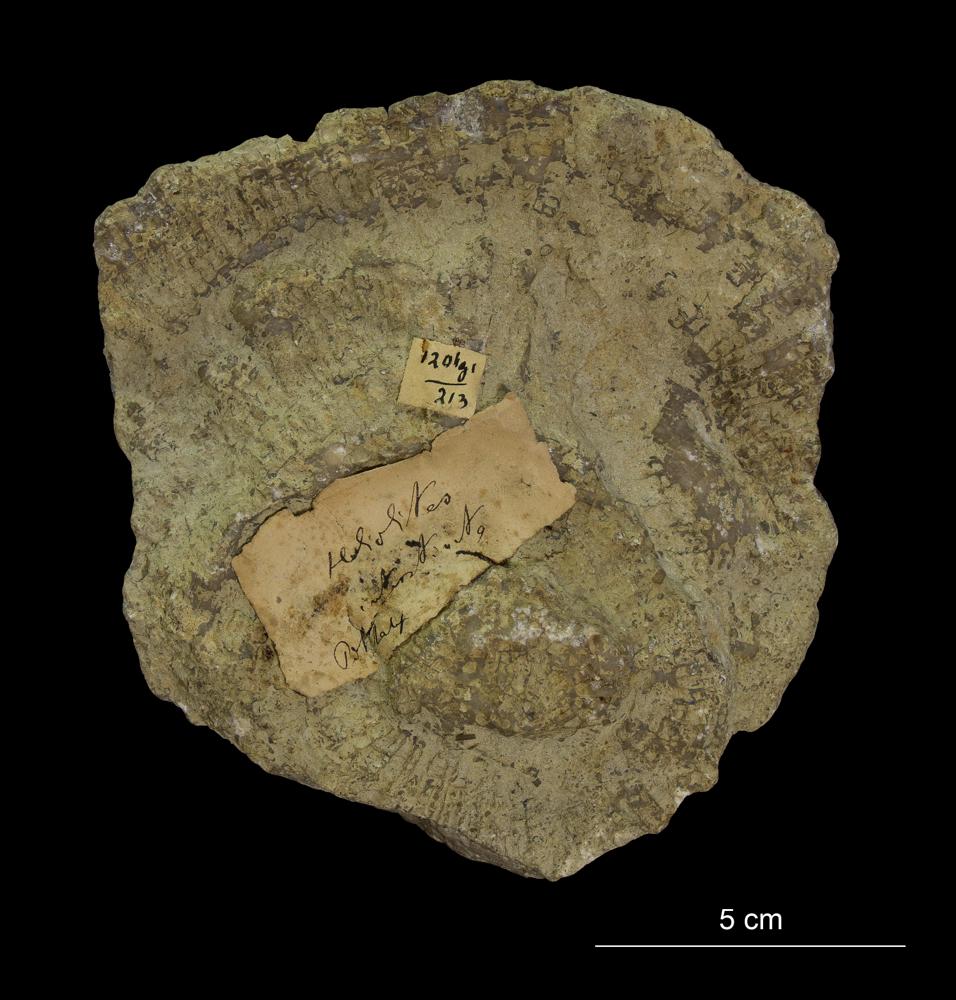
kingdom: Animalia
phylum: Cnidaria
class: Anthozoa
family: Favositidae
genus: Favosites
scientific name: Favosites
